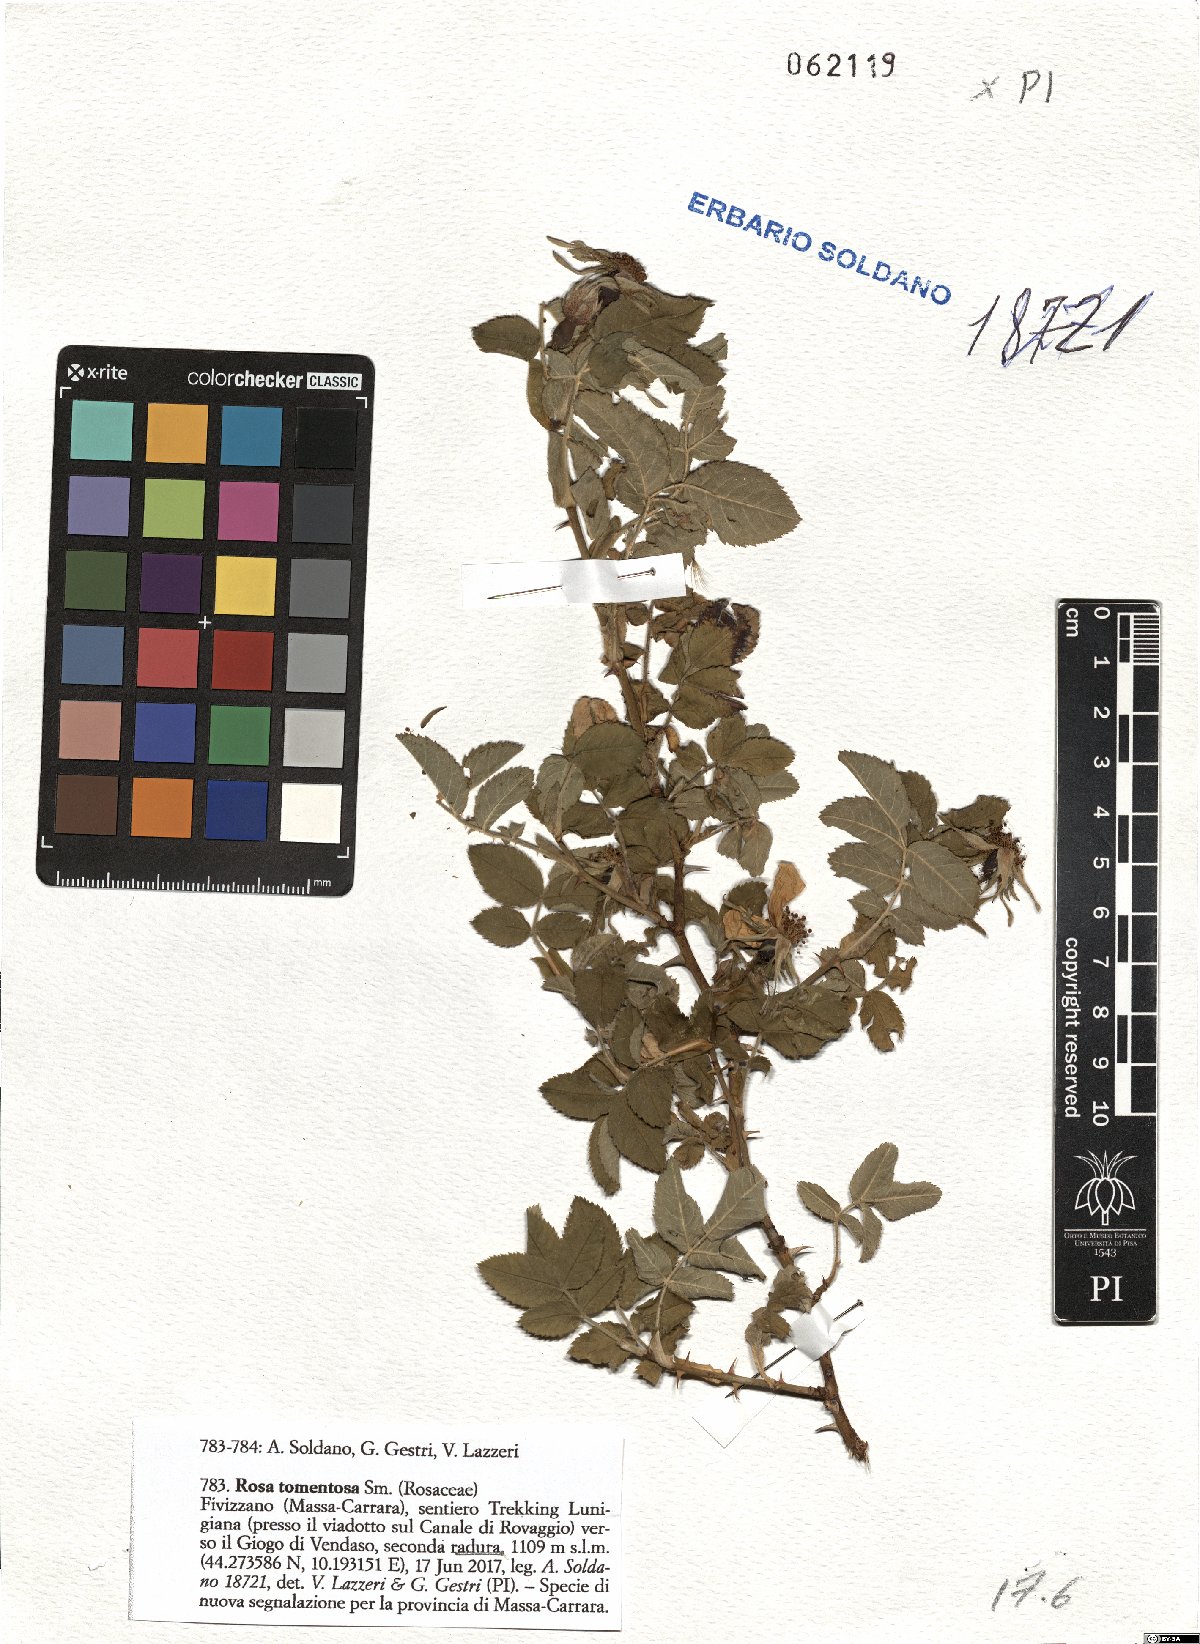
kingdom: Plantae
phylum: Tracheophyta
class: Magnoliopsida
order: Rosales
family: Rosaceae
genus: Rosa
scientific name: Rosa tomentosa
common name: Downy rose
